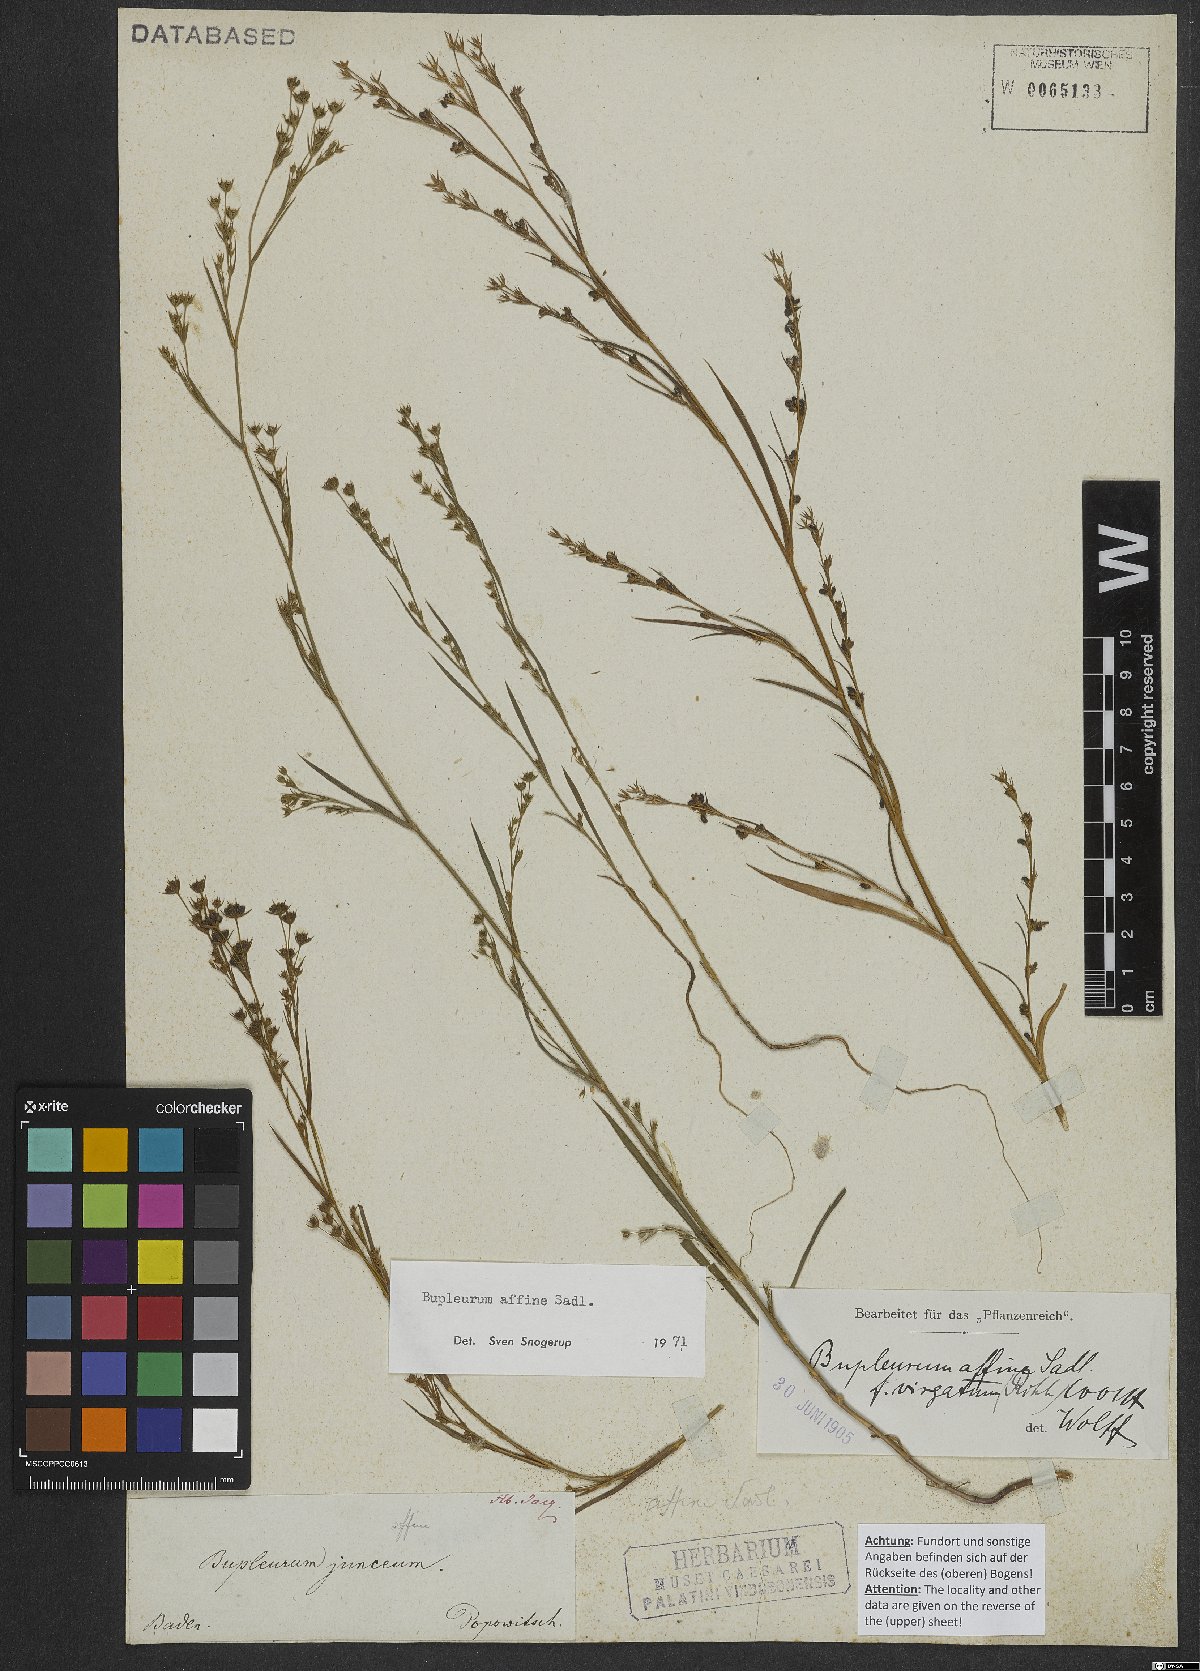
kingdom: Plantae
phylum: Tracheophyta
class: Magnoliopsida
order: Apiales
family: Apiaceae
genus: Bupleurum
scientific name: Bupleurum affine
